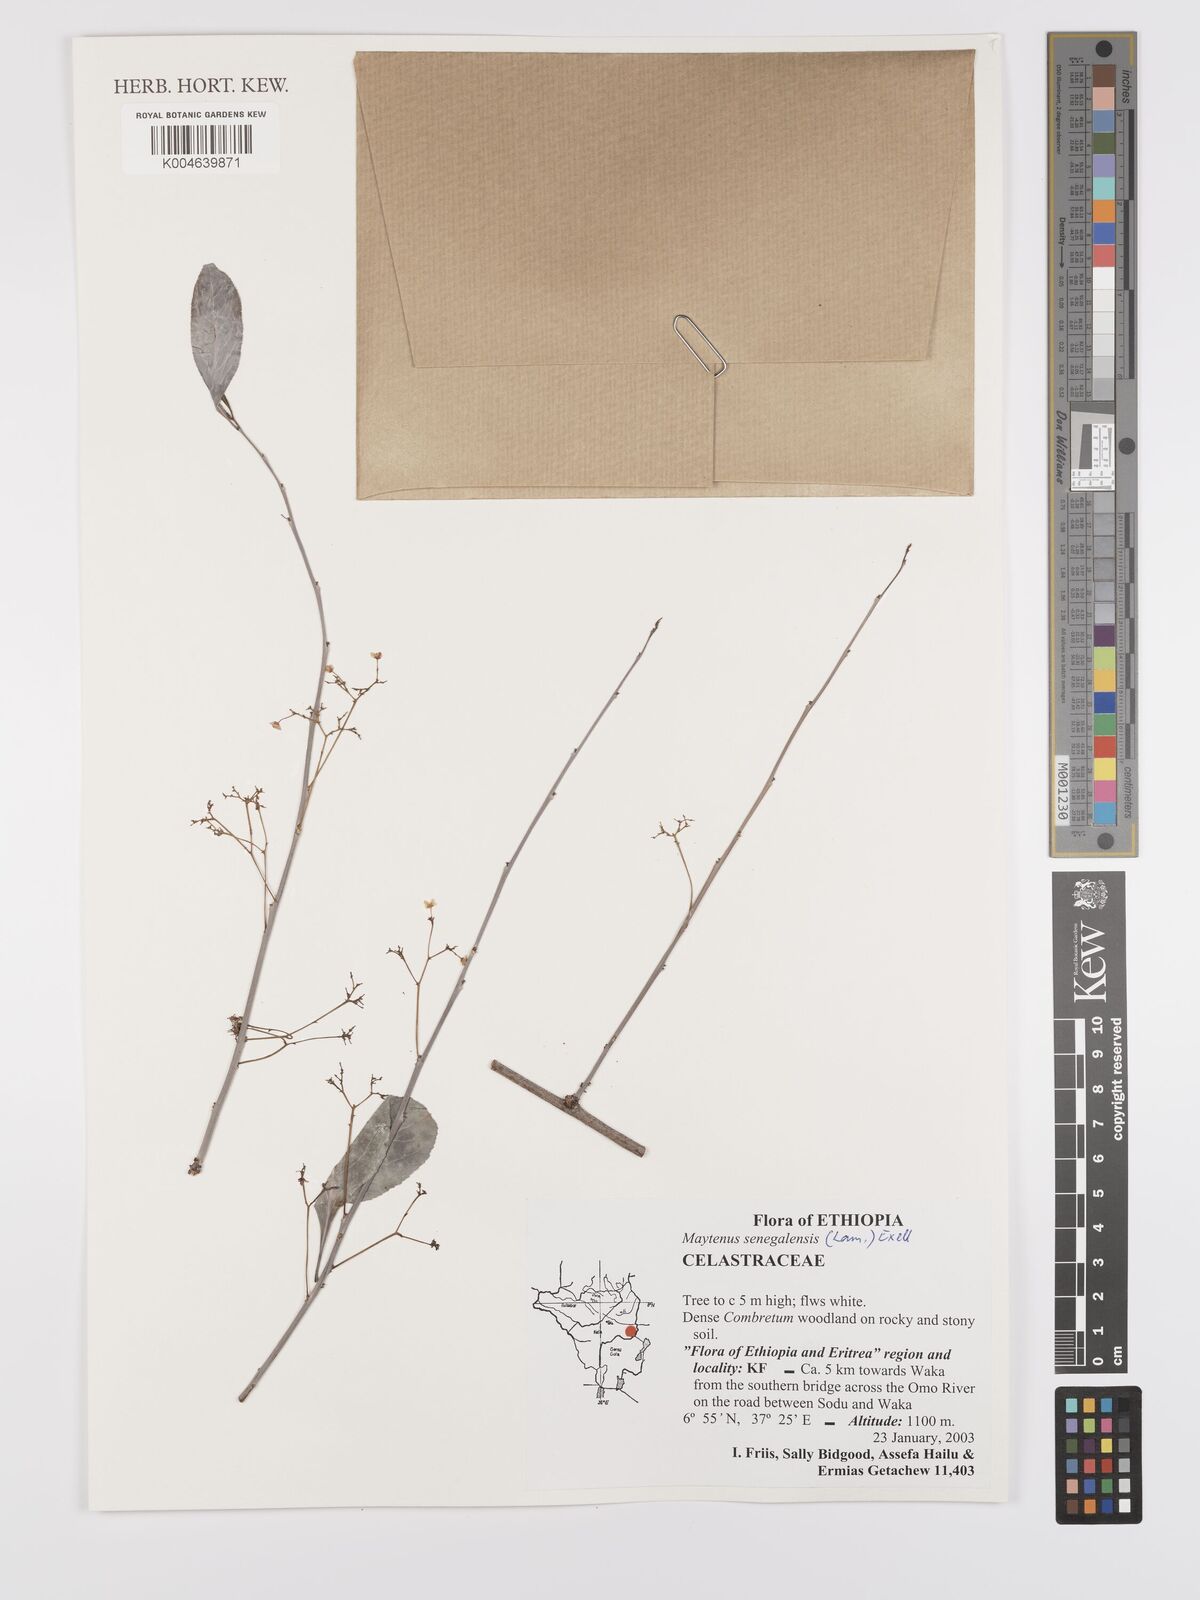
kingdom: Plantae
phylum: Tracheophyta
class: Magnoliopsida
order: Celastrales
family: Celastraceae
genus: Gymnosporia
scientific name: Gymnosporia senegalensis
